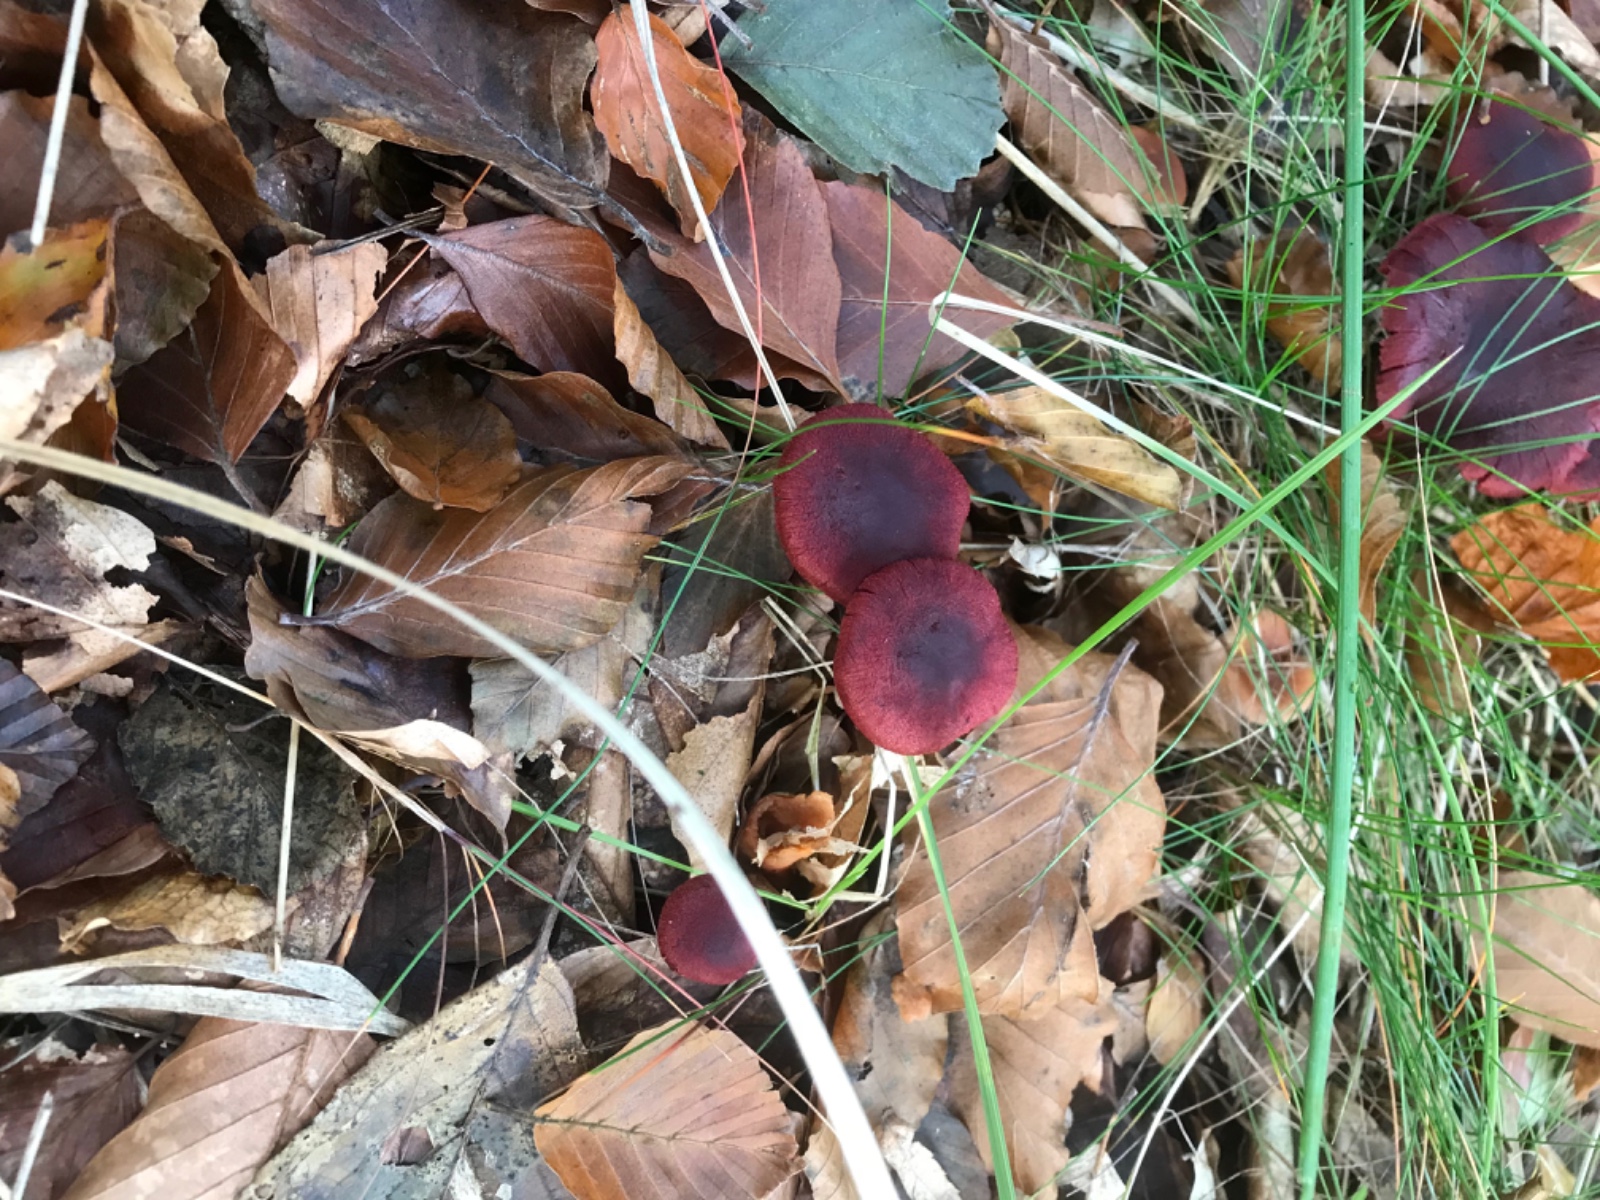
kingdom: Fungi
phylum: Basidiomycota
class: Agaricomycetes
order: Agaricales
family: Cortinariaceae
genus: Cortinarius
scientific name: Cortinarius sanguineus
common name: Bloodred webcap
